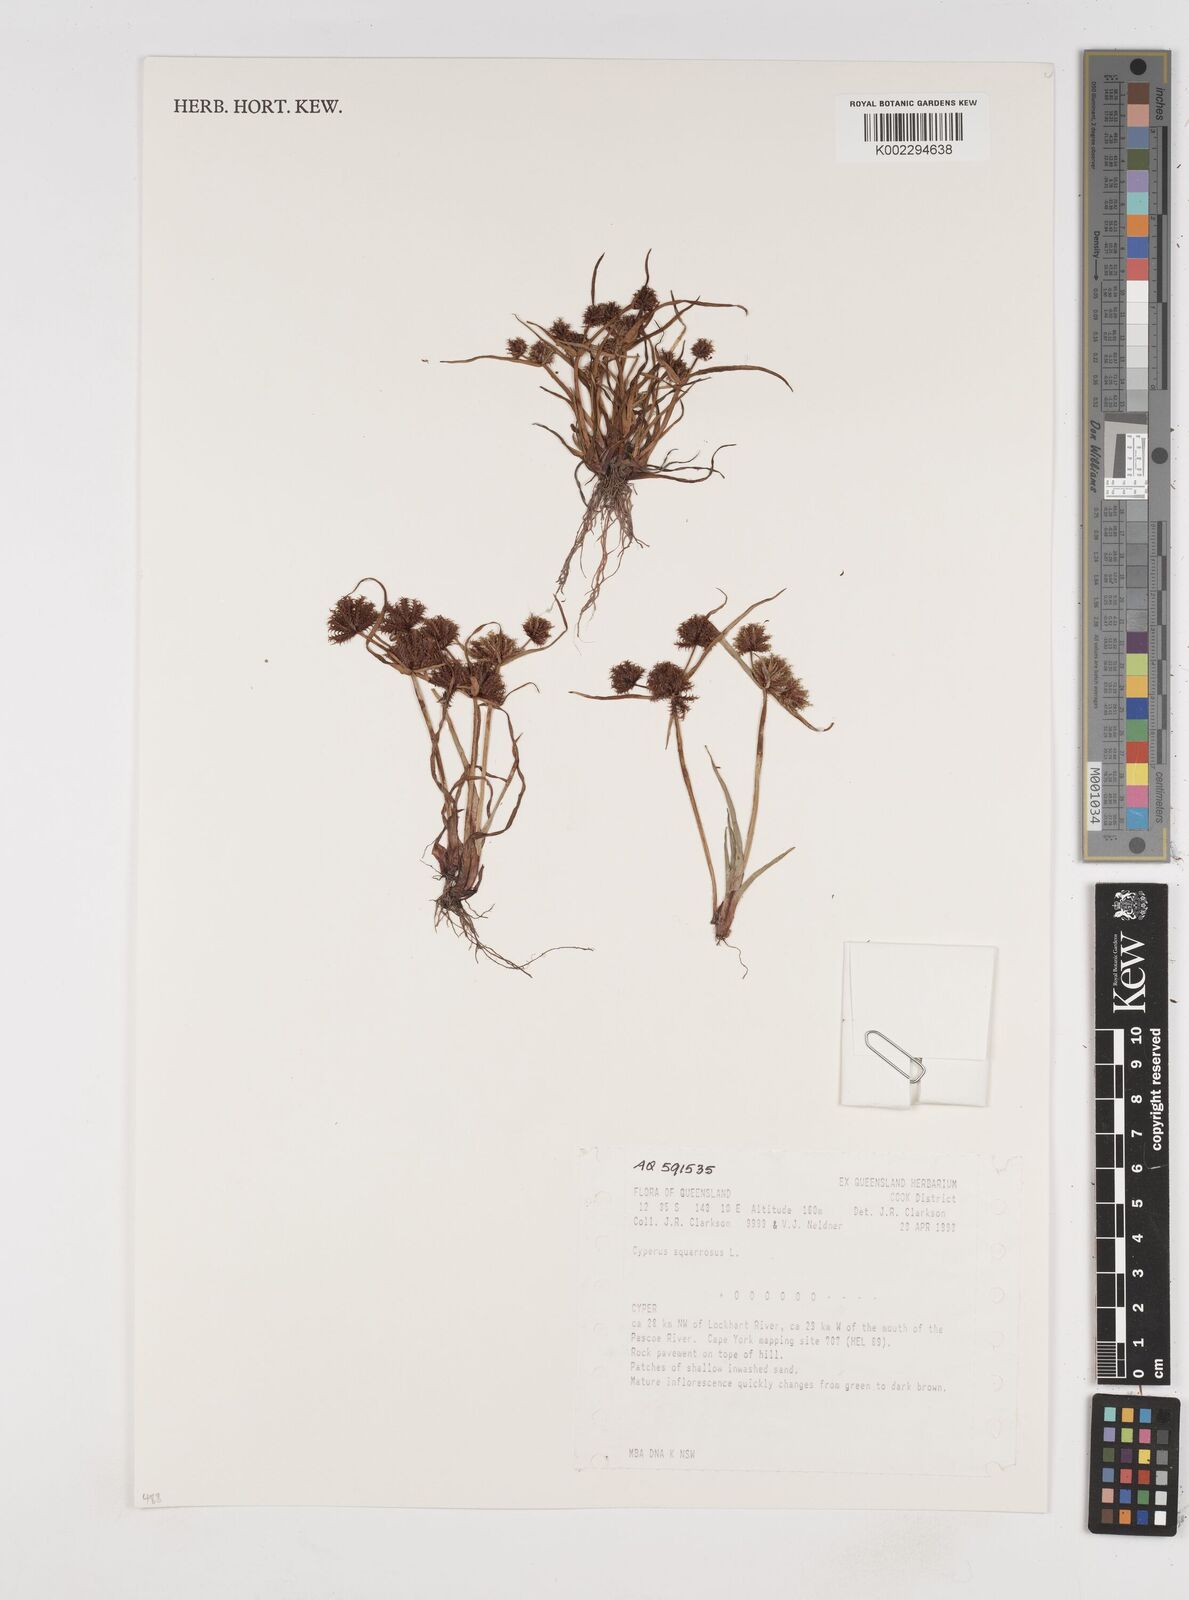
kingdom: Plantae
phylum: Tracheophyta
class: Liliopsida
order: Poales
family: Cyperaceae
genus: Cyperus
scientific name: Cyperus squarrosus
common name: Awned cyperus
